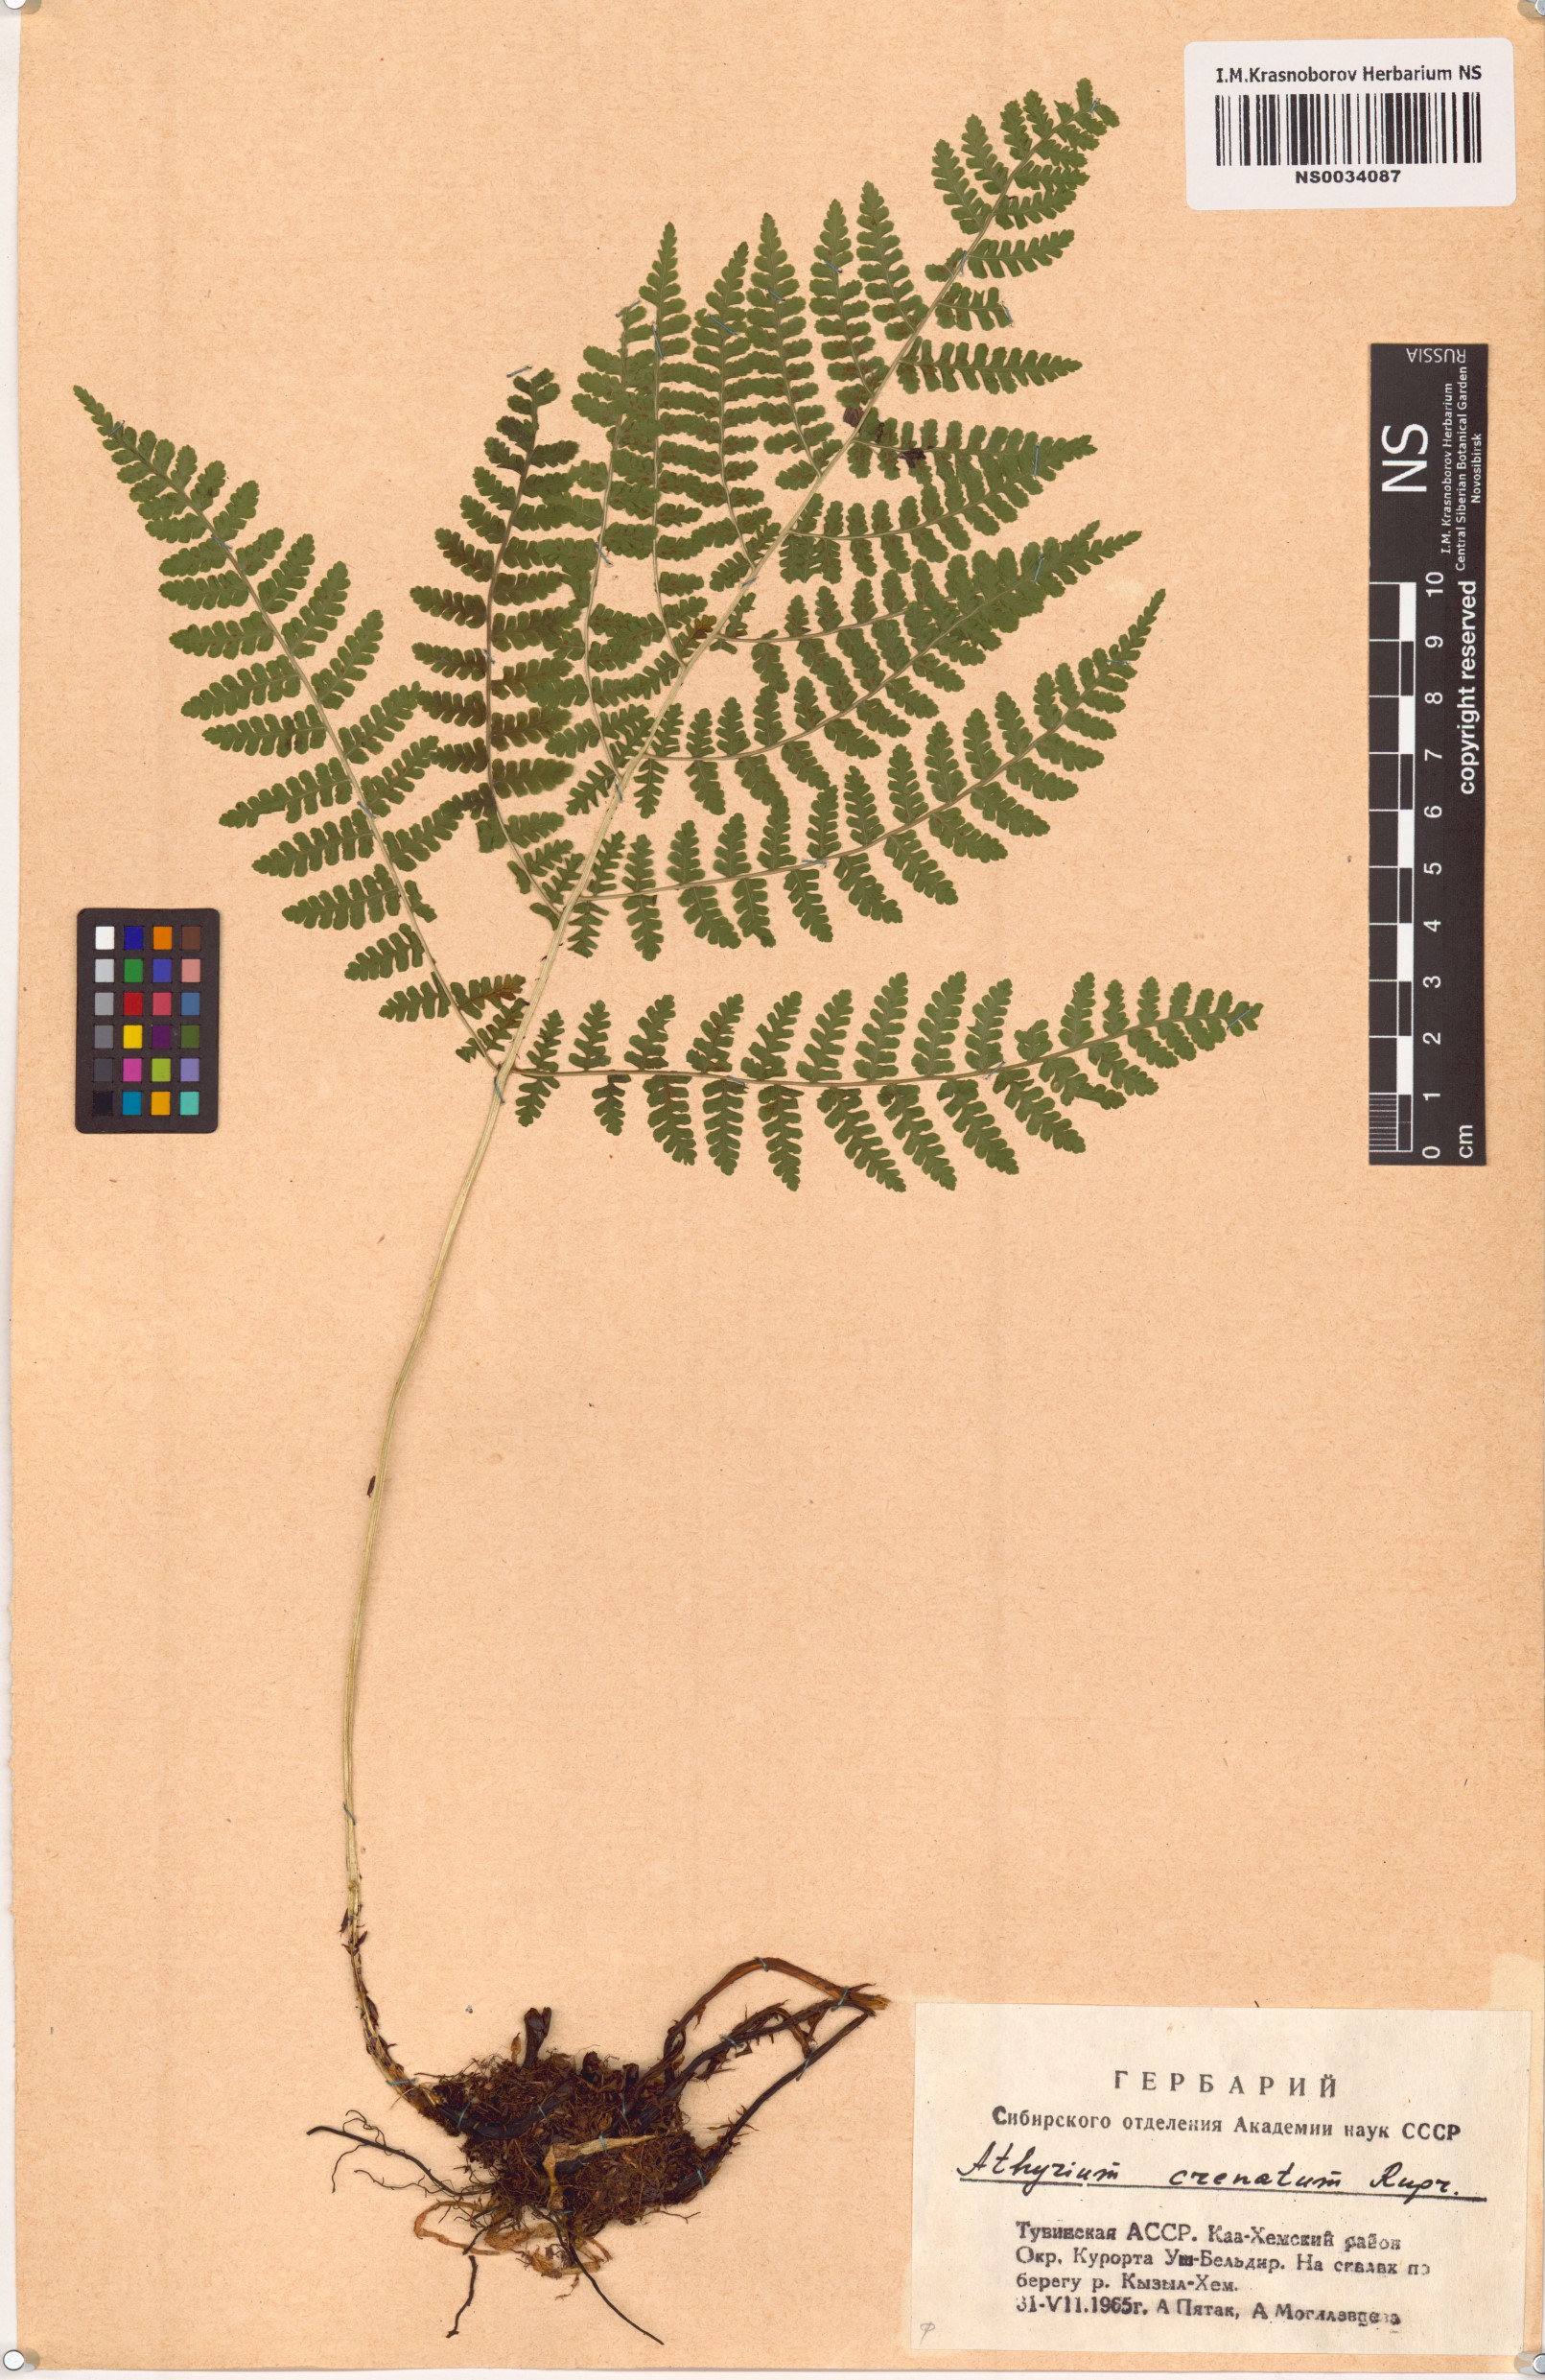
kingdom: Plantae
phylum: Tracheophyta
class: Polypodiopsida
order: Polypodiales
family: Athyriaceae
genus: Diplazium
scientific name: Diplazium sibiricum
